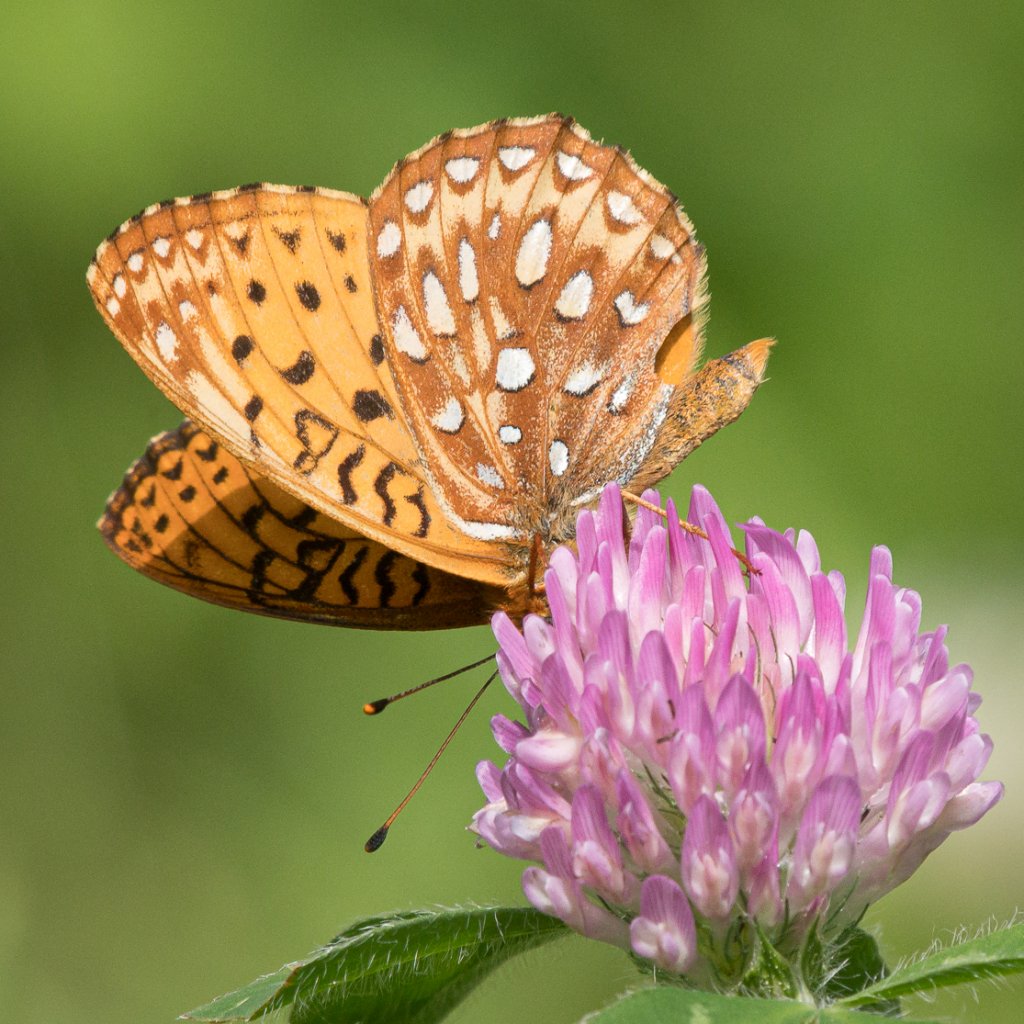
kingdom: Animalia
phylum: Arthropoda
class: Insecta
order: Lepidoptera
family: Nymphalidae
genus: Speyeria
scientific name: Speyeria atlantis
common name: Northwestern Fritillary
